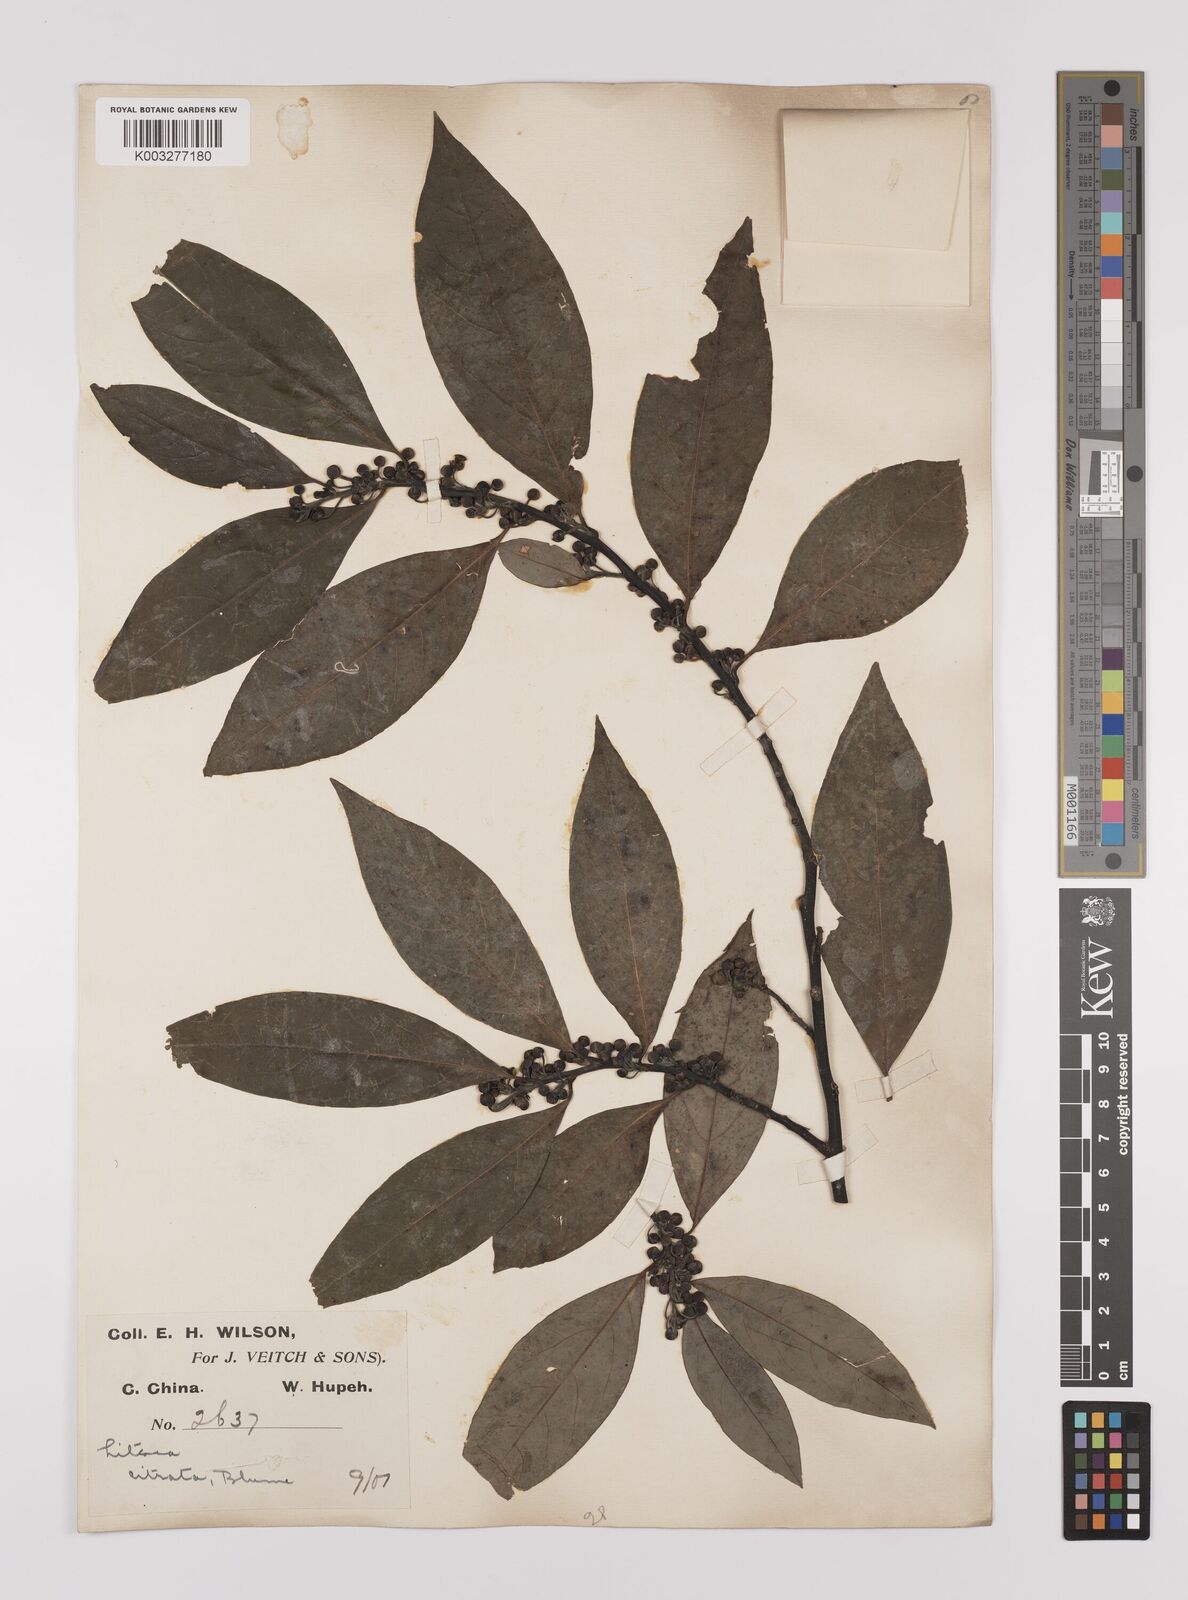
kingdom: Plantae
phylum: Tracheophyta
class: Magnoliopsida
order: Laurales
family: Lauraceae
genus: Litsea
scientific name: Litsea cubeba
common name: Mountain-pepper
